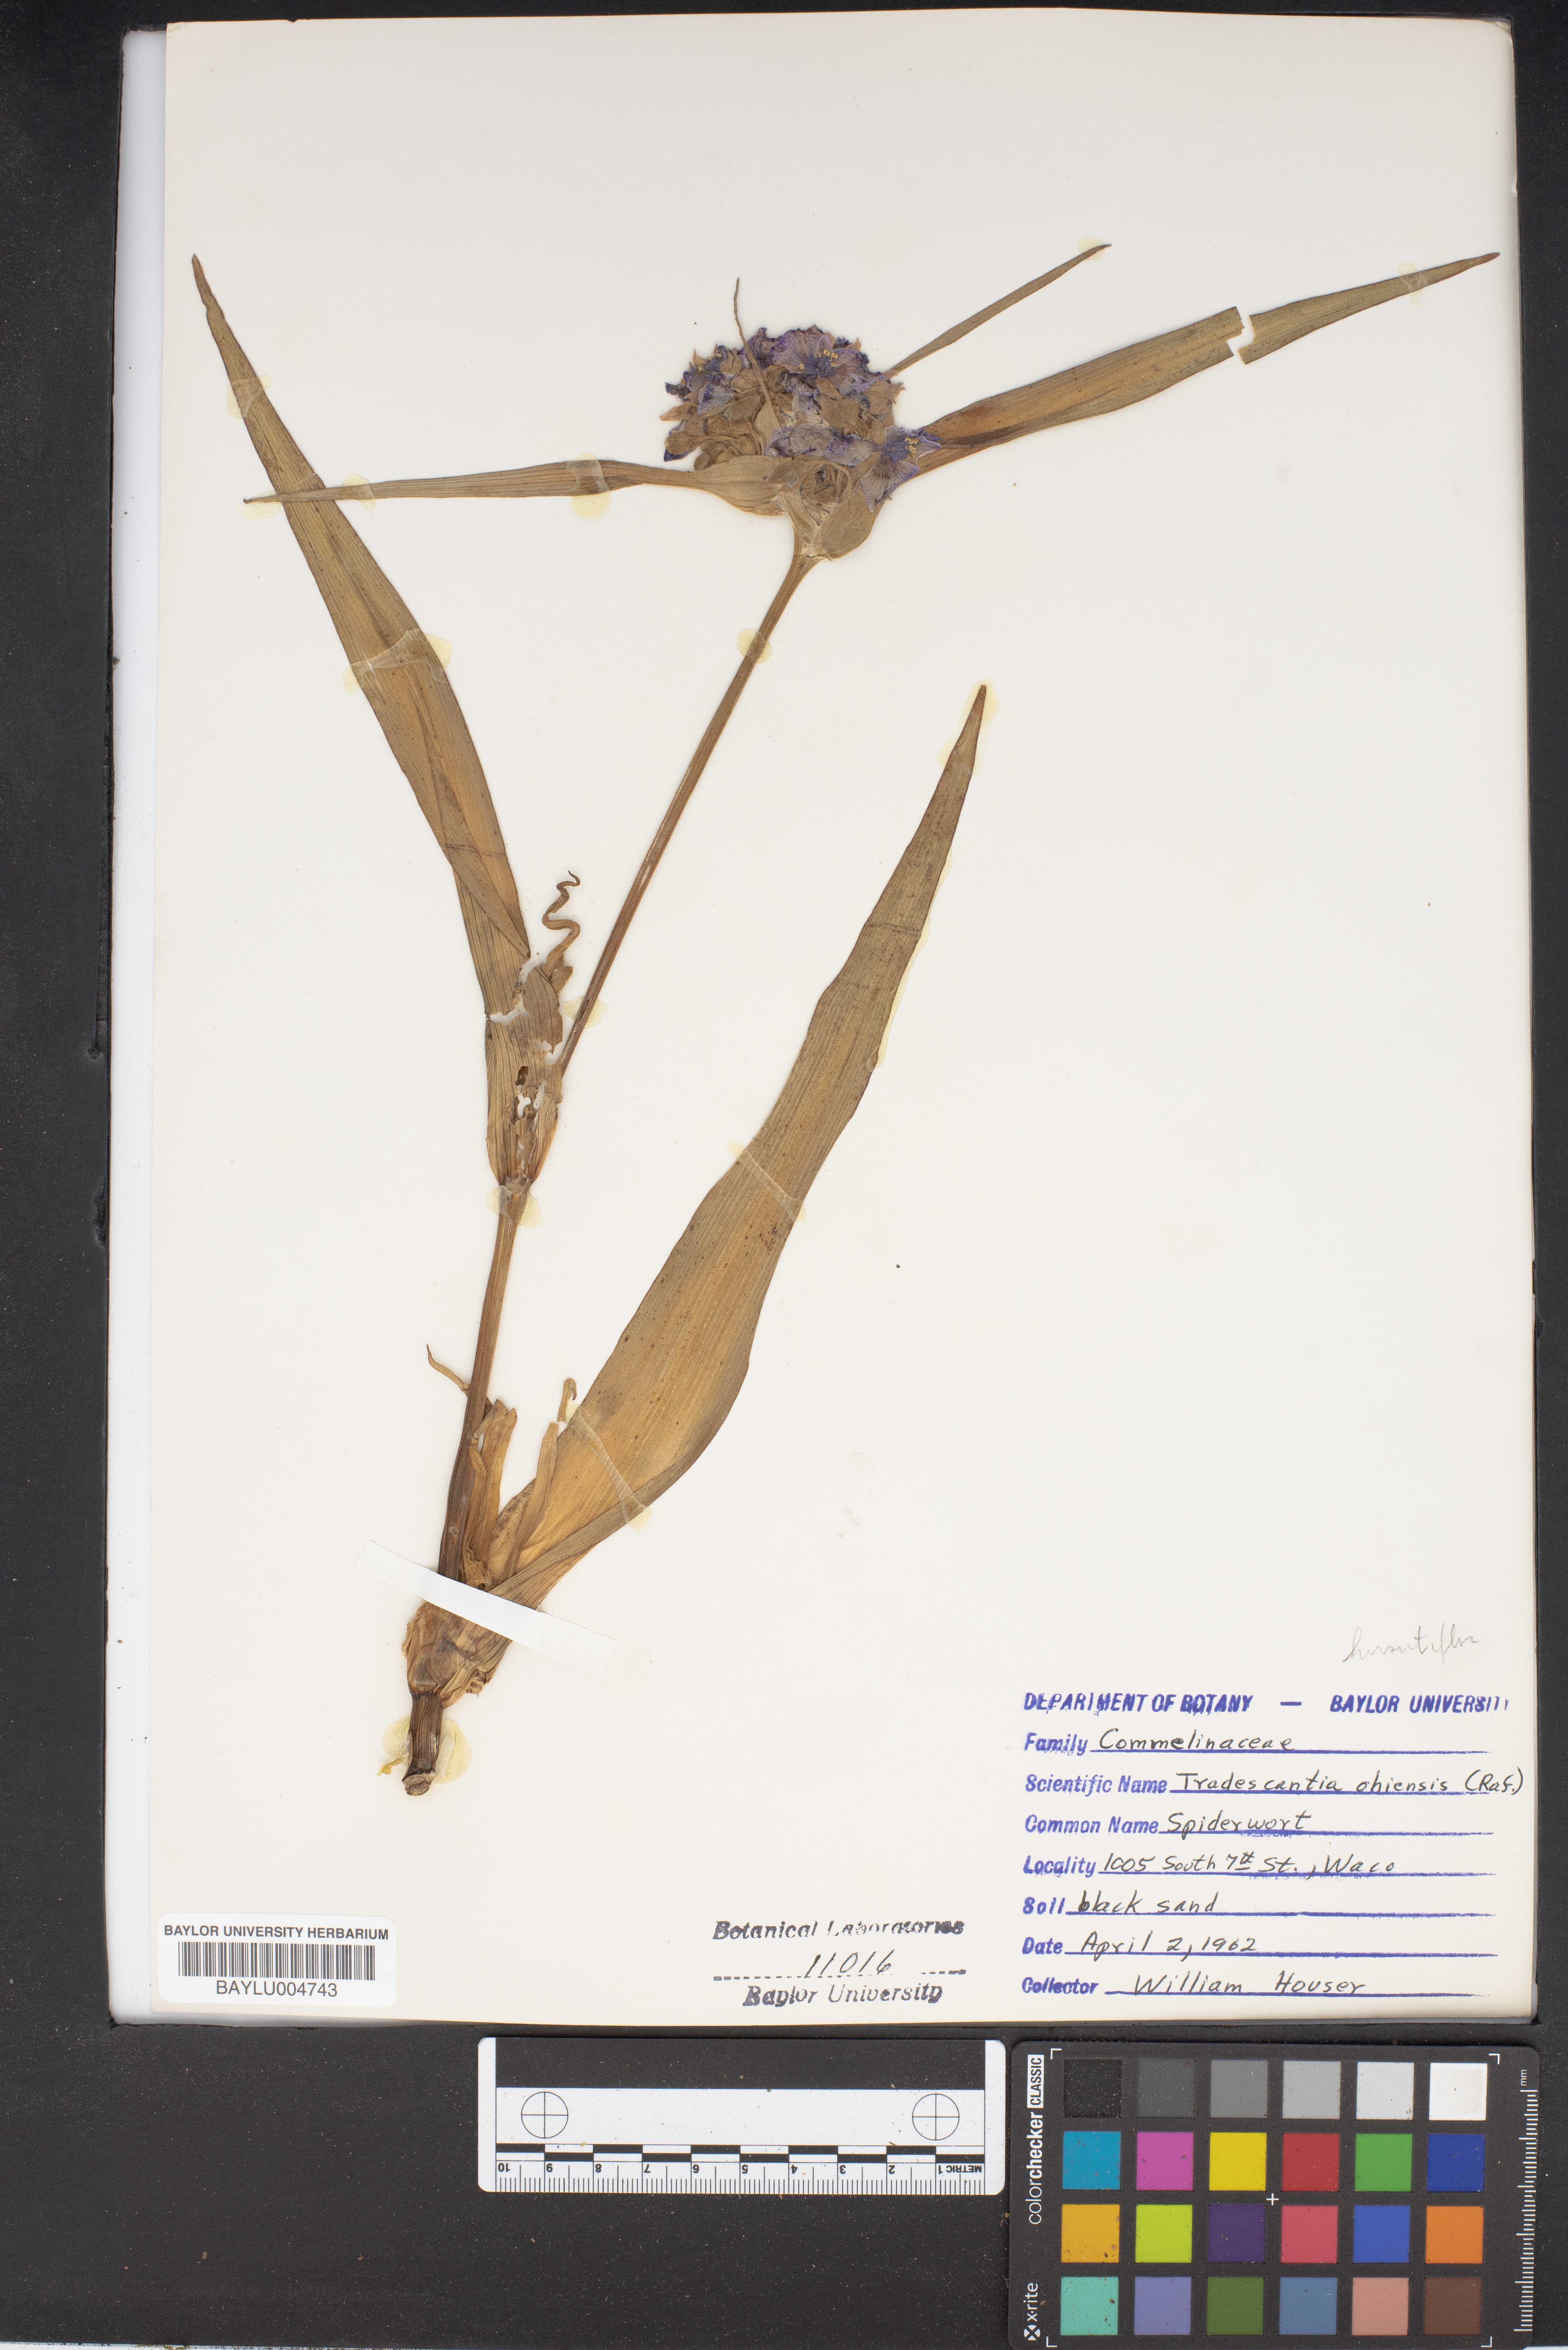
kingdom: Plantae
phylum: Tracheophyta
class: Liliopsida
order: Commelinales
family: Commelinaceae
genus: Tradescantia
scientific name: Tradescantia ohiensis
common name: Ohio spiderwort
